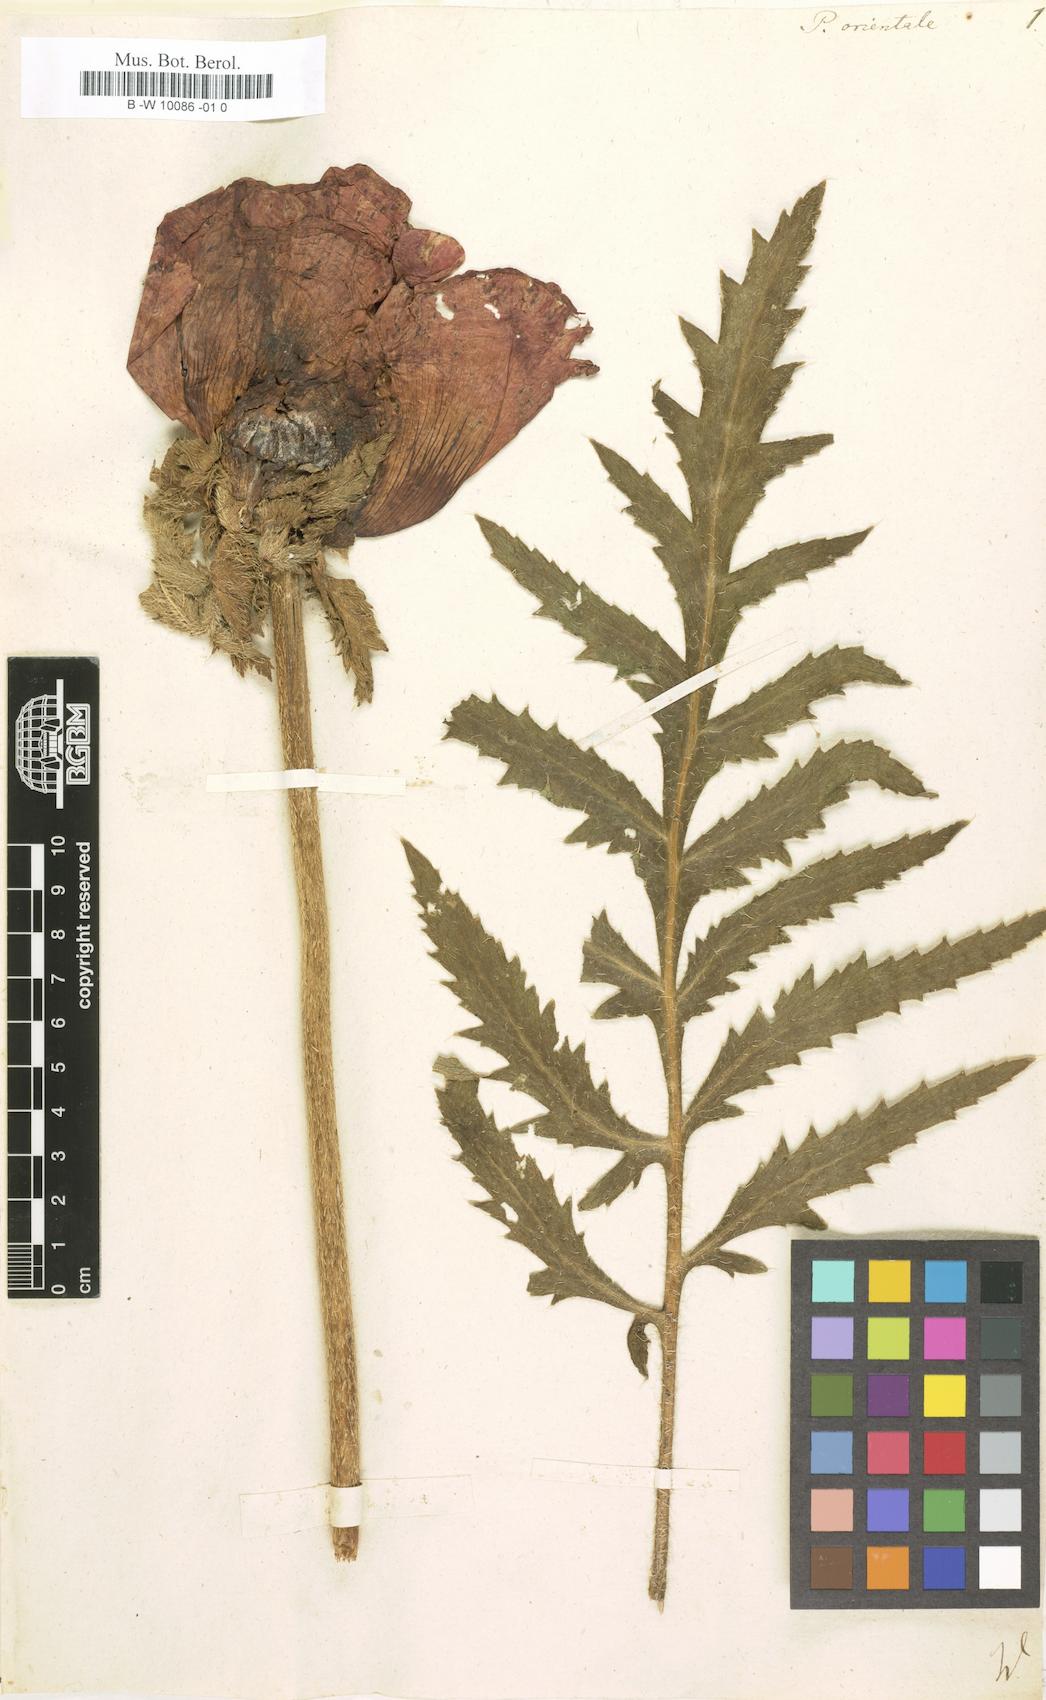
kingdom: Plantae
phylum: Tracheophyta
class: Magnoliopsida
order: Ranunculales
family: Papaveraceae
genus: Papaver
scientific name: Papaver orientale
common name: Oriental poppy
